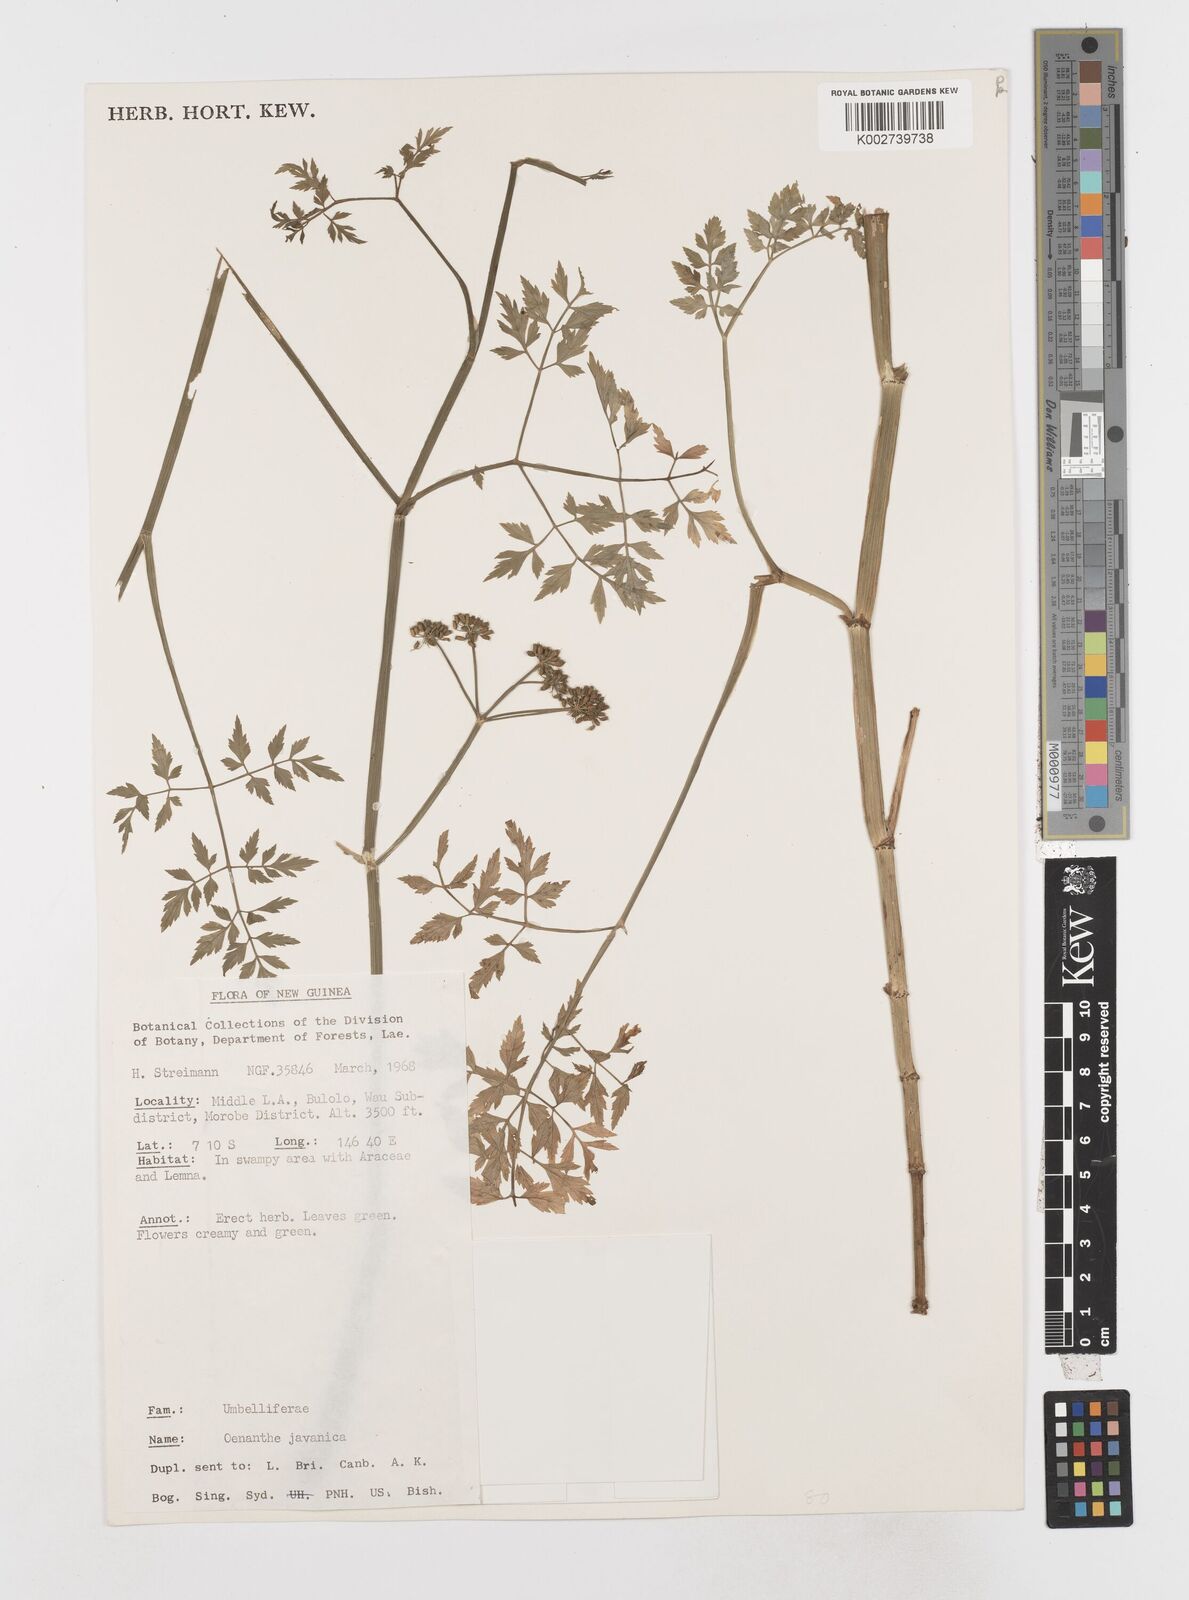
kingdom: Plantae
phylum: Tracheophyta
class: Magnoliopsida
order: Apiales
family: Apiaceae
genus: Oenanthe
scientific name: Oenanthe javanica
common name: Java water-dropwort
